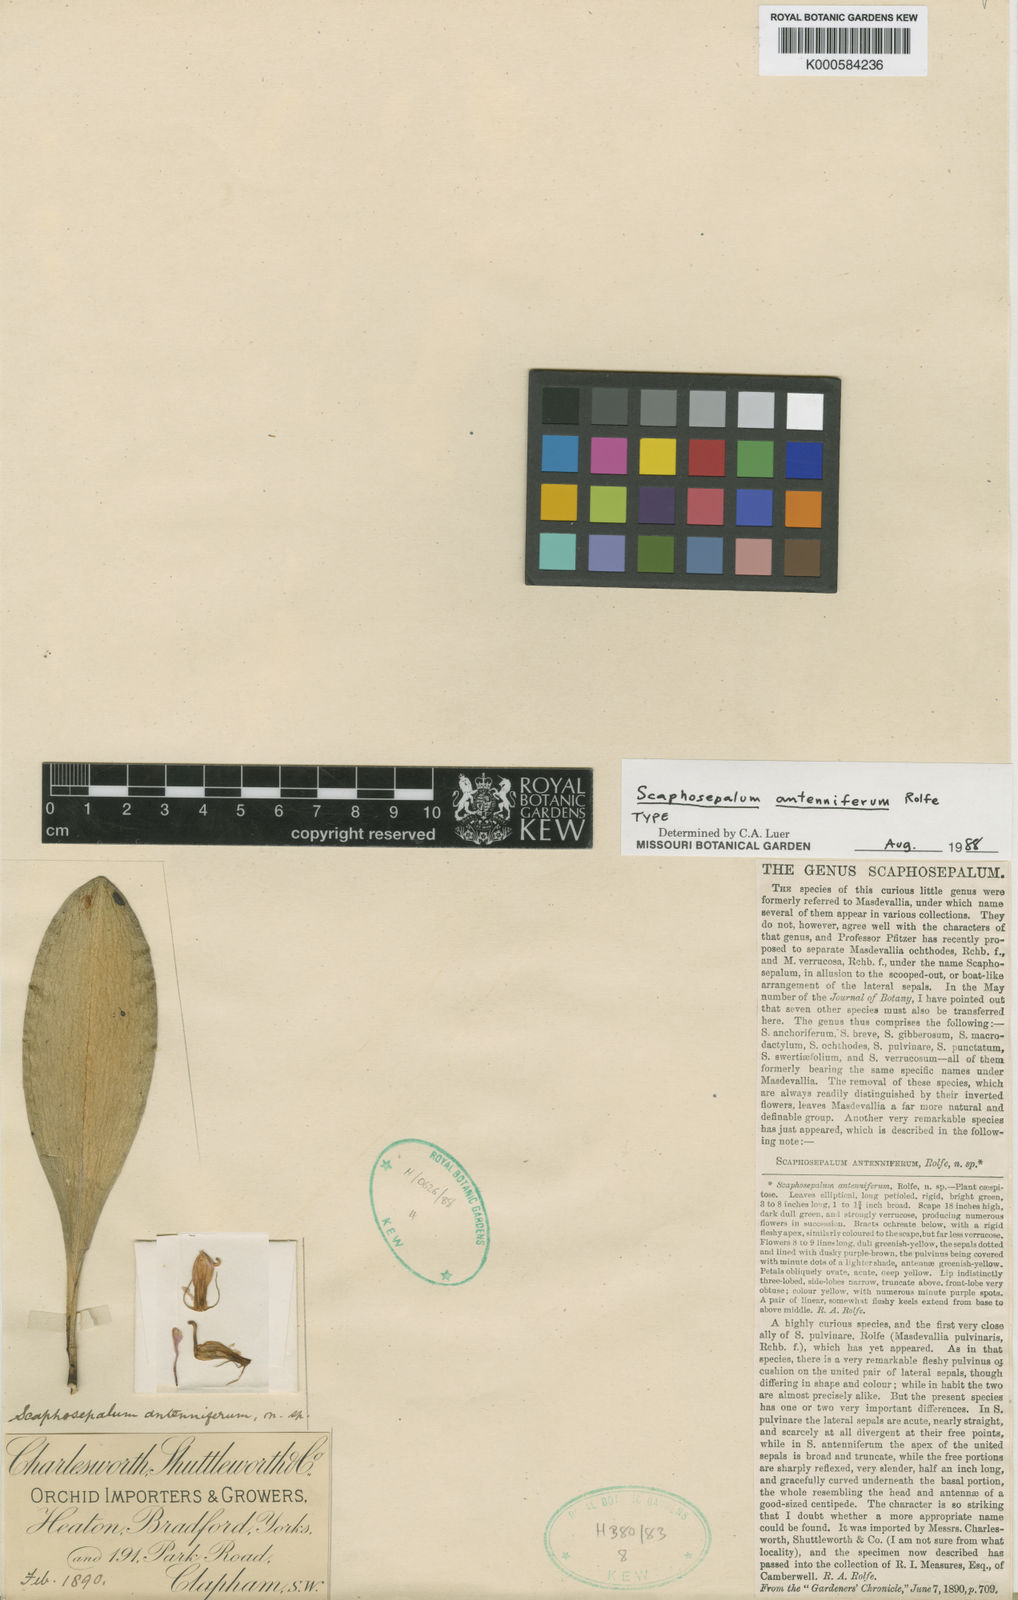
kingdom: Plantae
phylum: Tracheophyta
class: Liliopsida
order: Asparagales
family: Orchidaceae
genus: Scaphosepalum
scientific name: Scaphosepalum antenniferum
